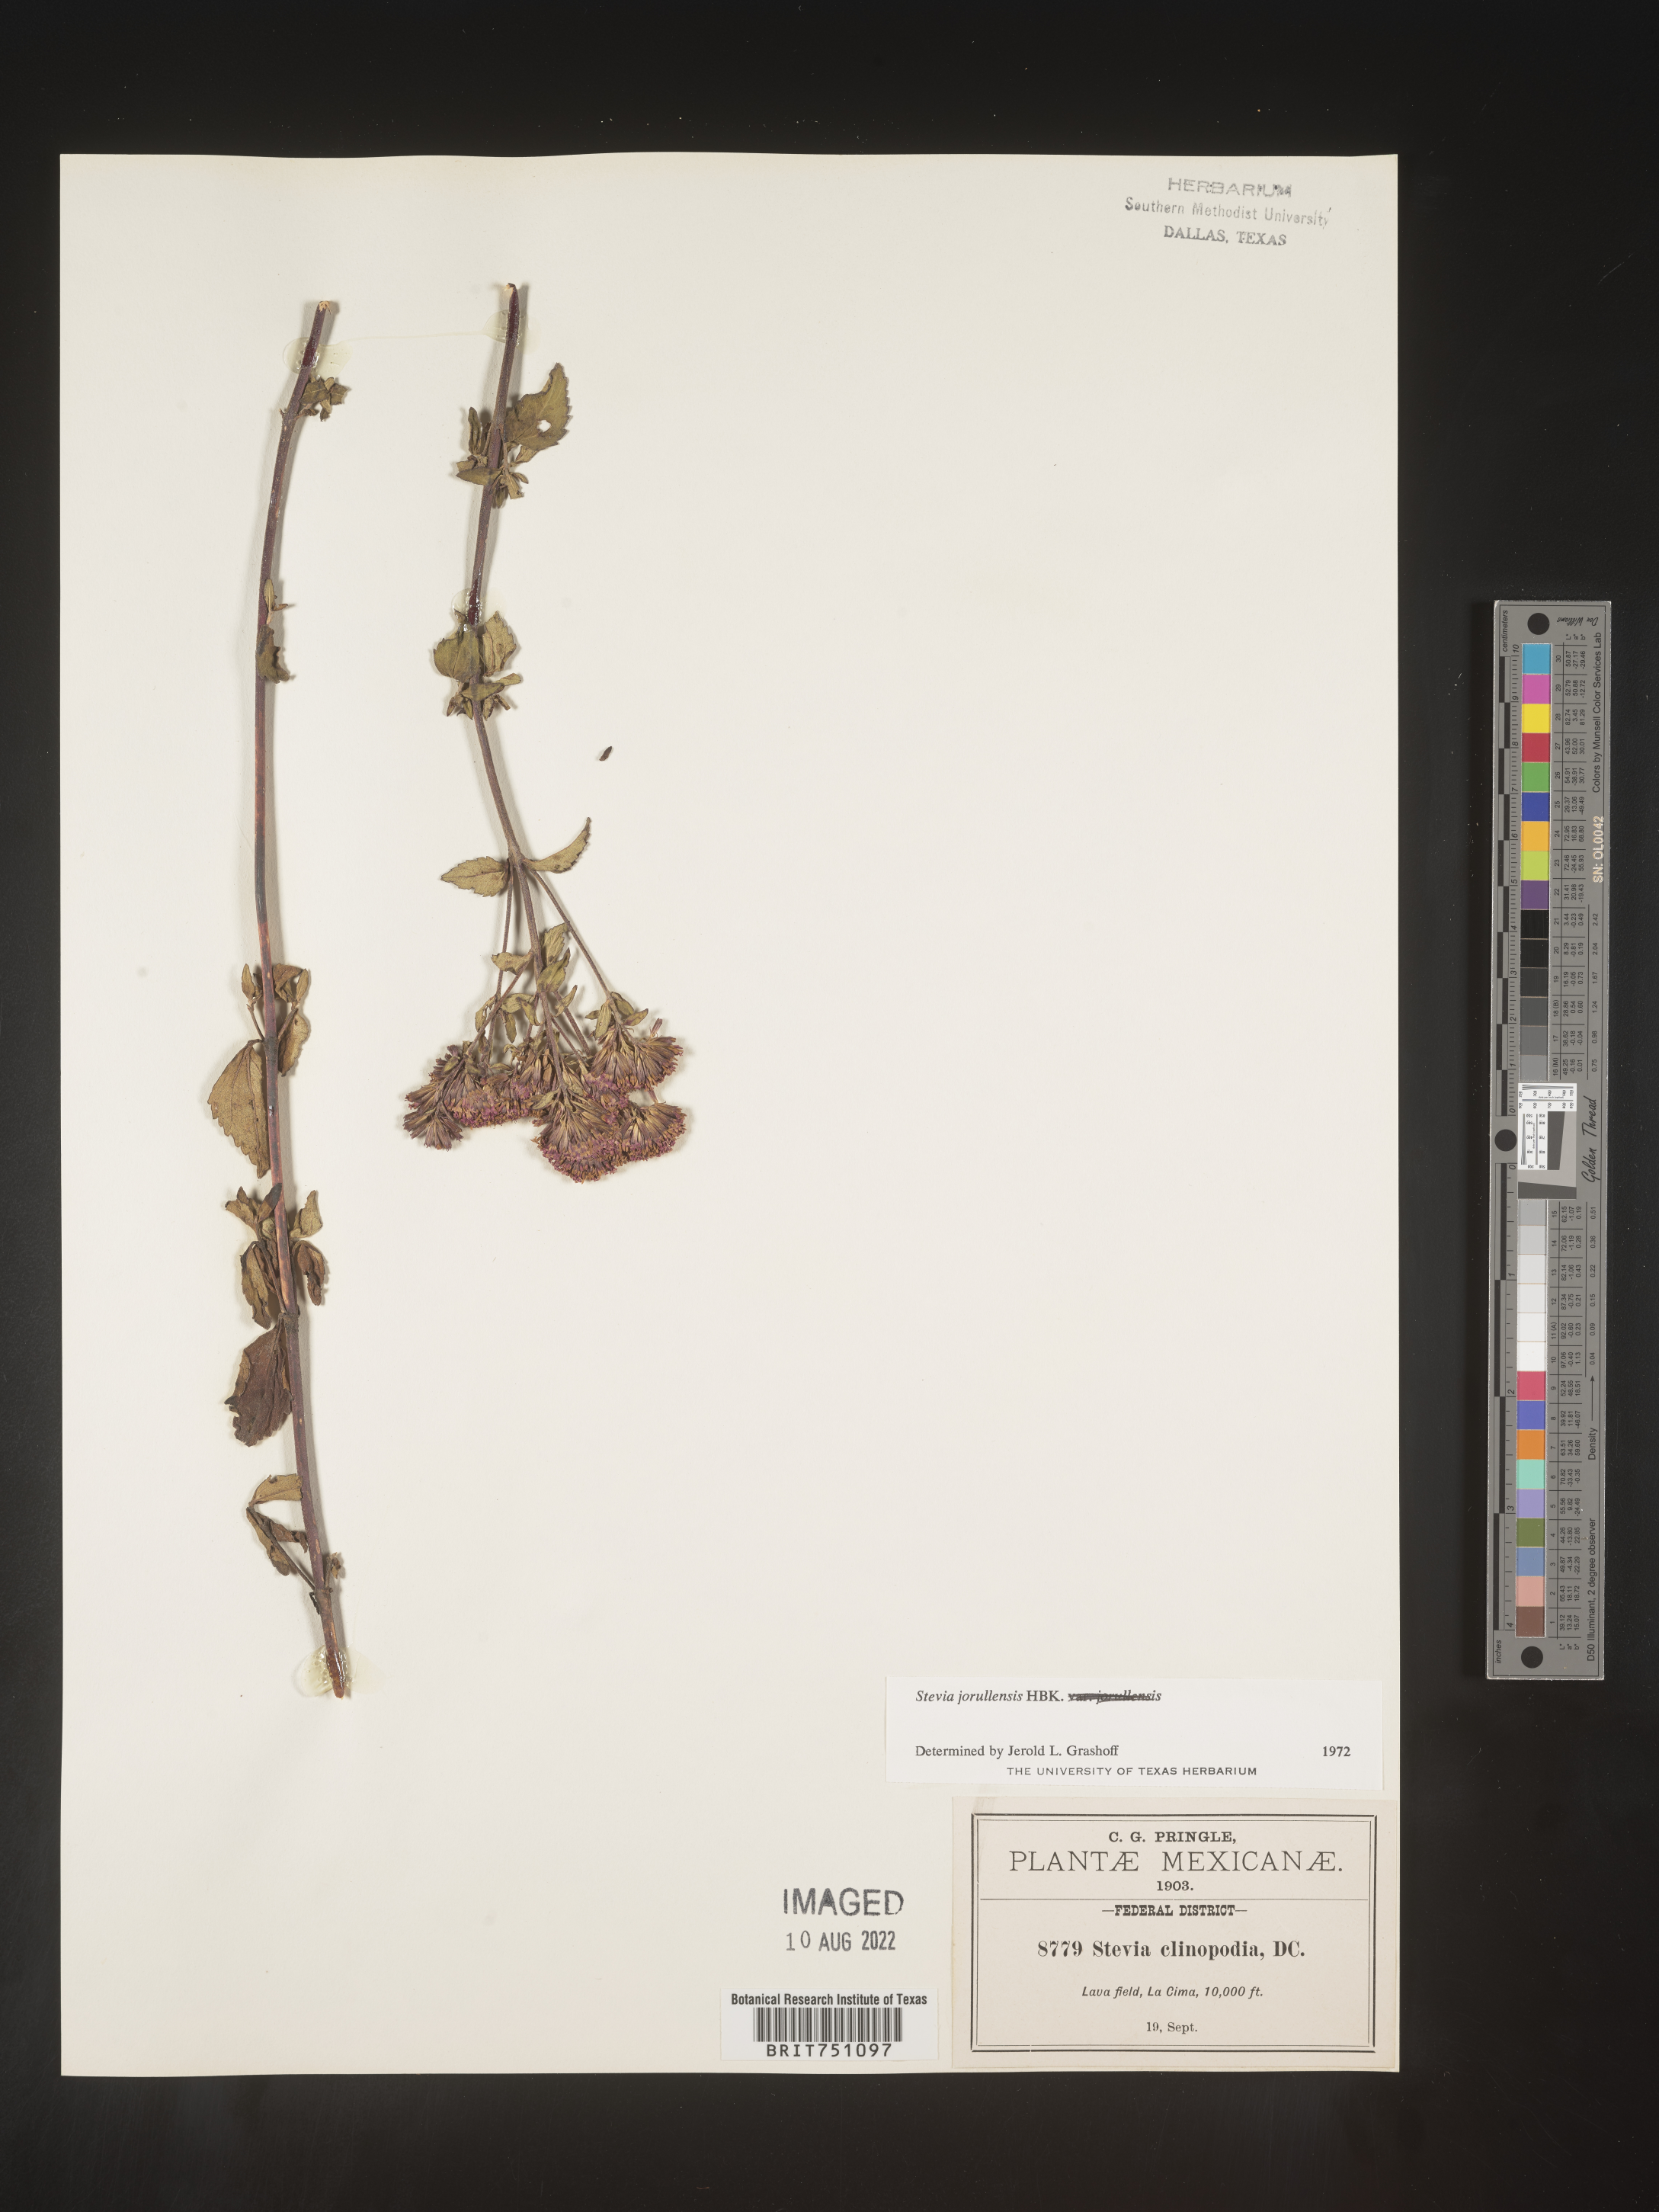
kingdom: Plantae
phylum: Tracheophyta
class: Magnoliopsida
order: Asterales
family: Asteraceae
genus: Stevia
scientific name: Stevia jorullensis
